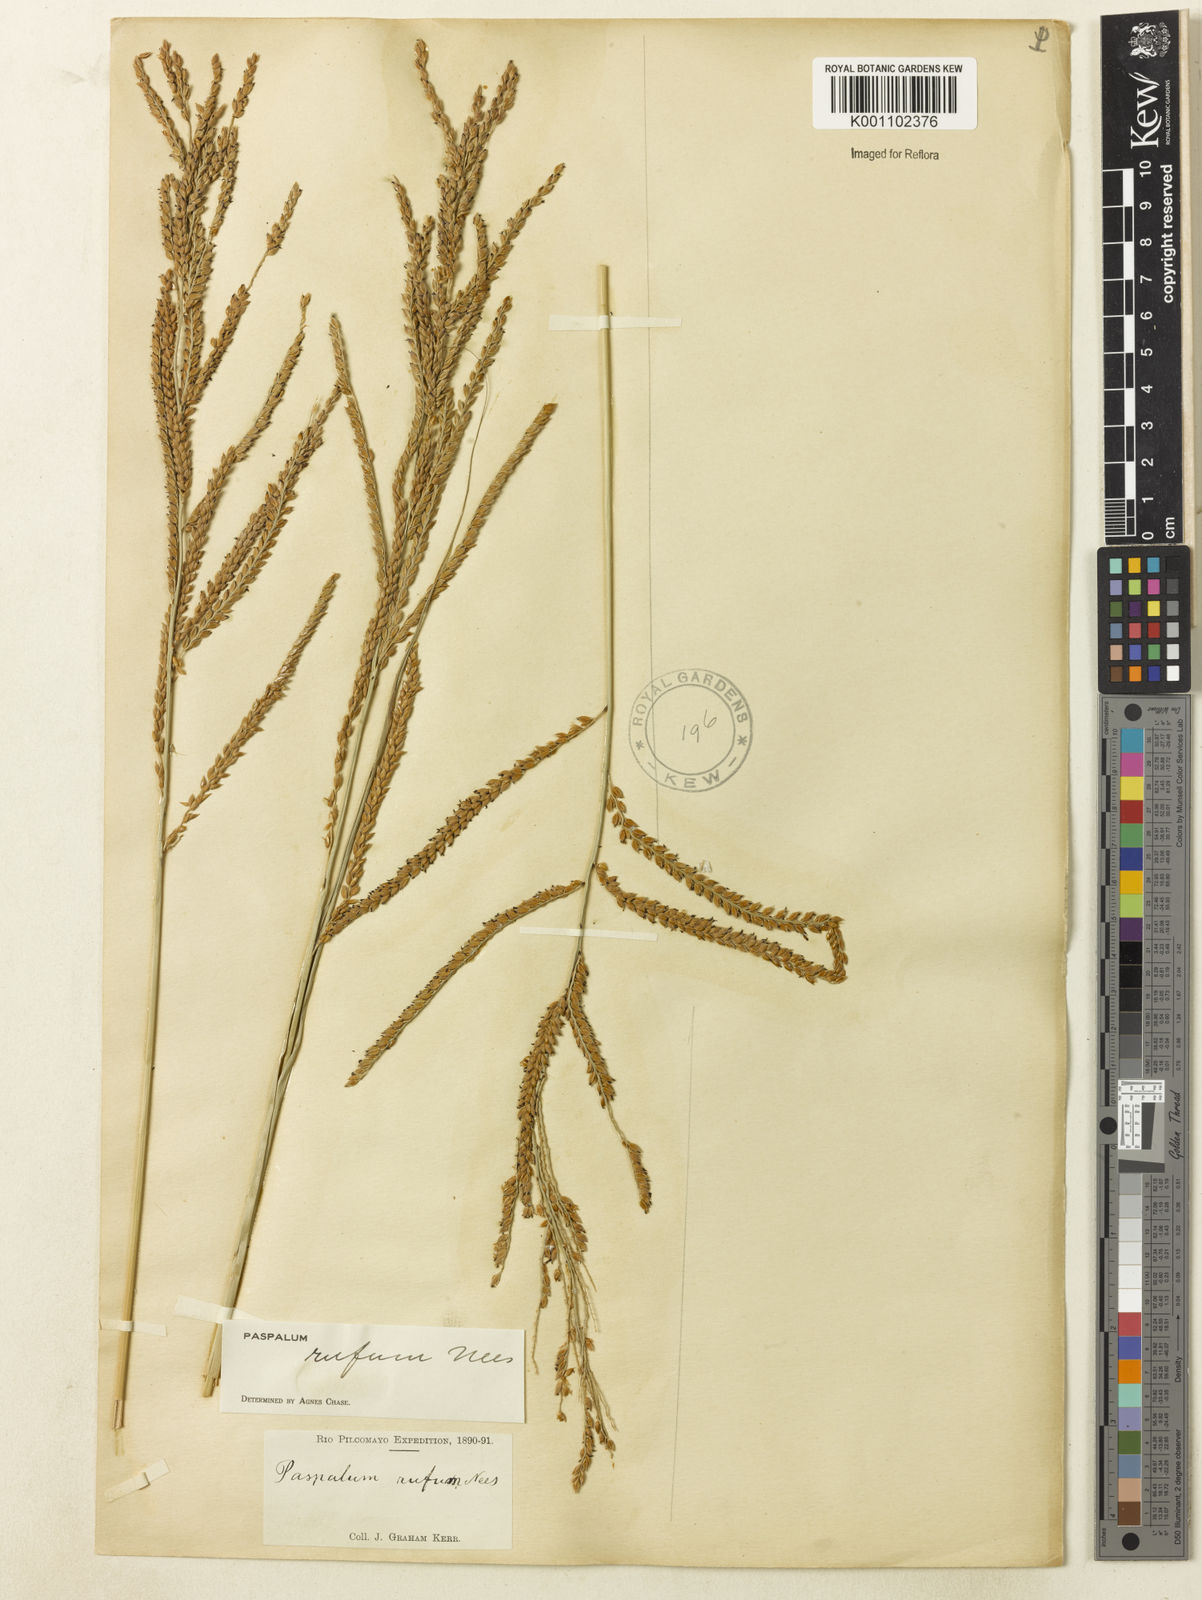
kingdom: Plantae
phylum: Tracheophyta
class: Liliopsida
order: Poales
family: Poaceae
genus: Paspalum
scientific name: Paspalum rufum
